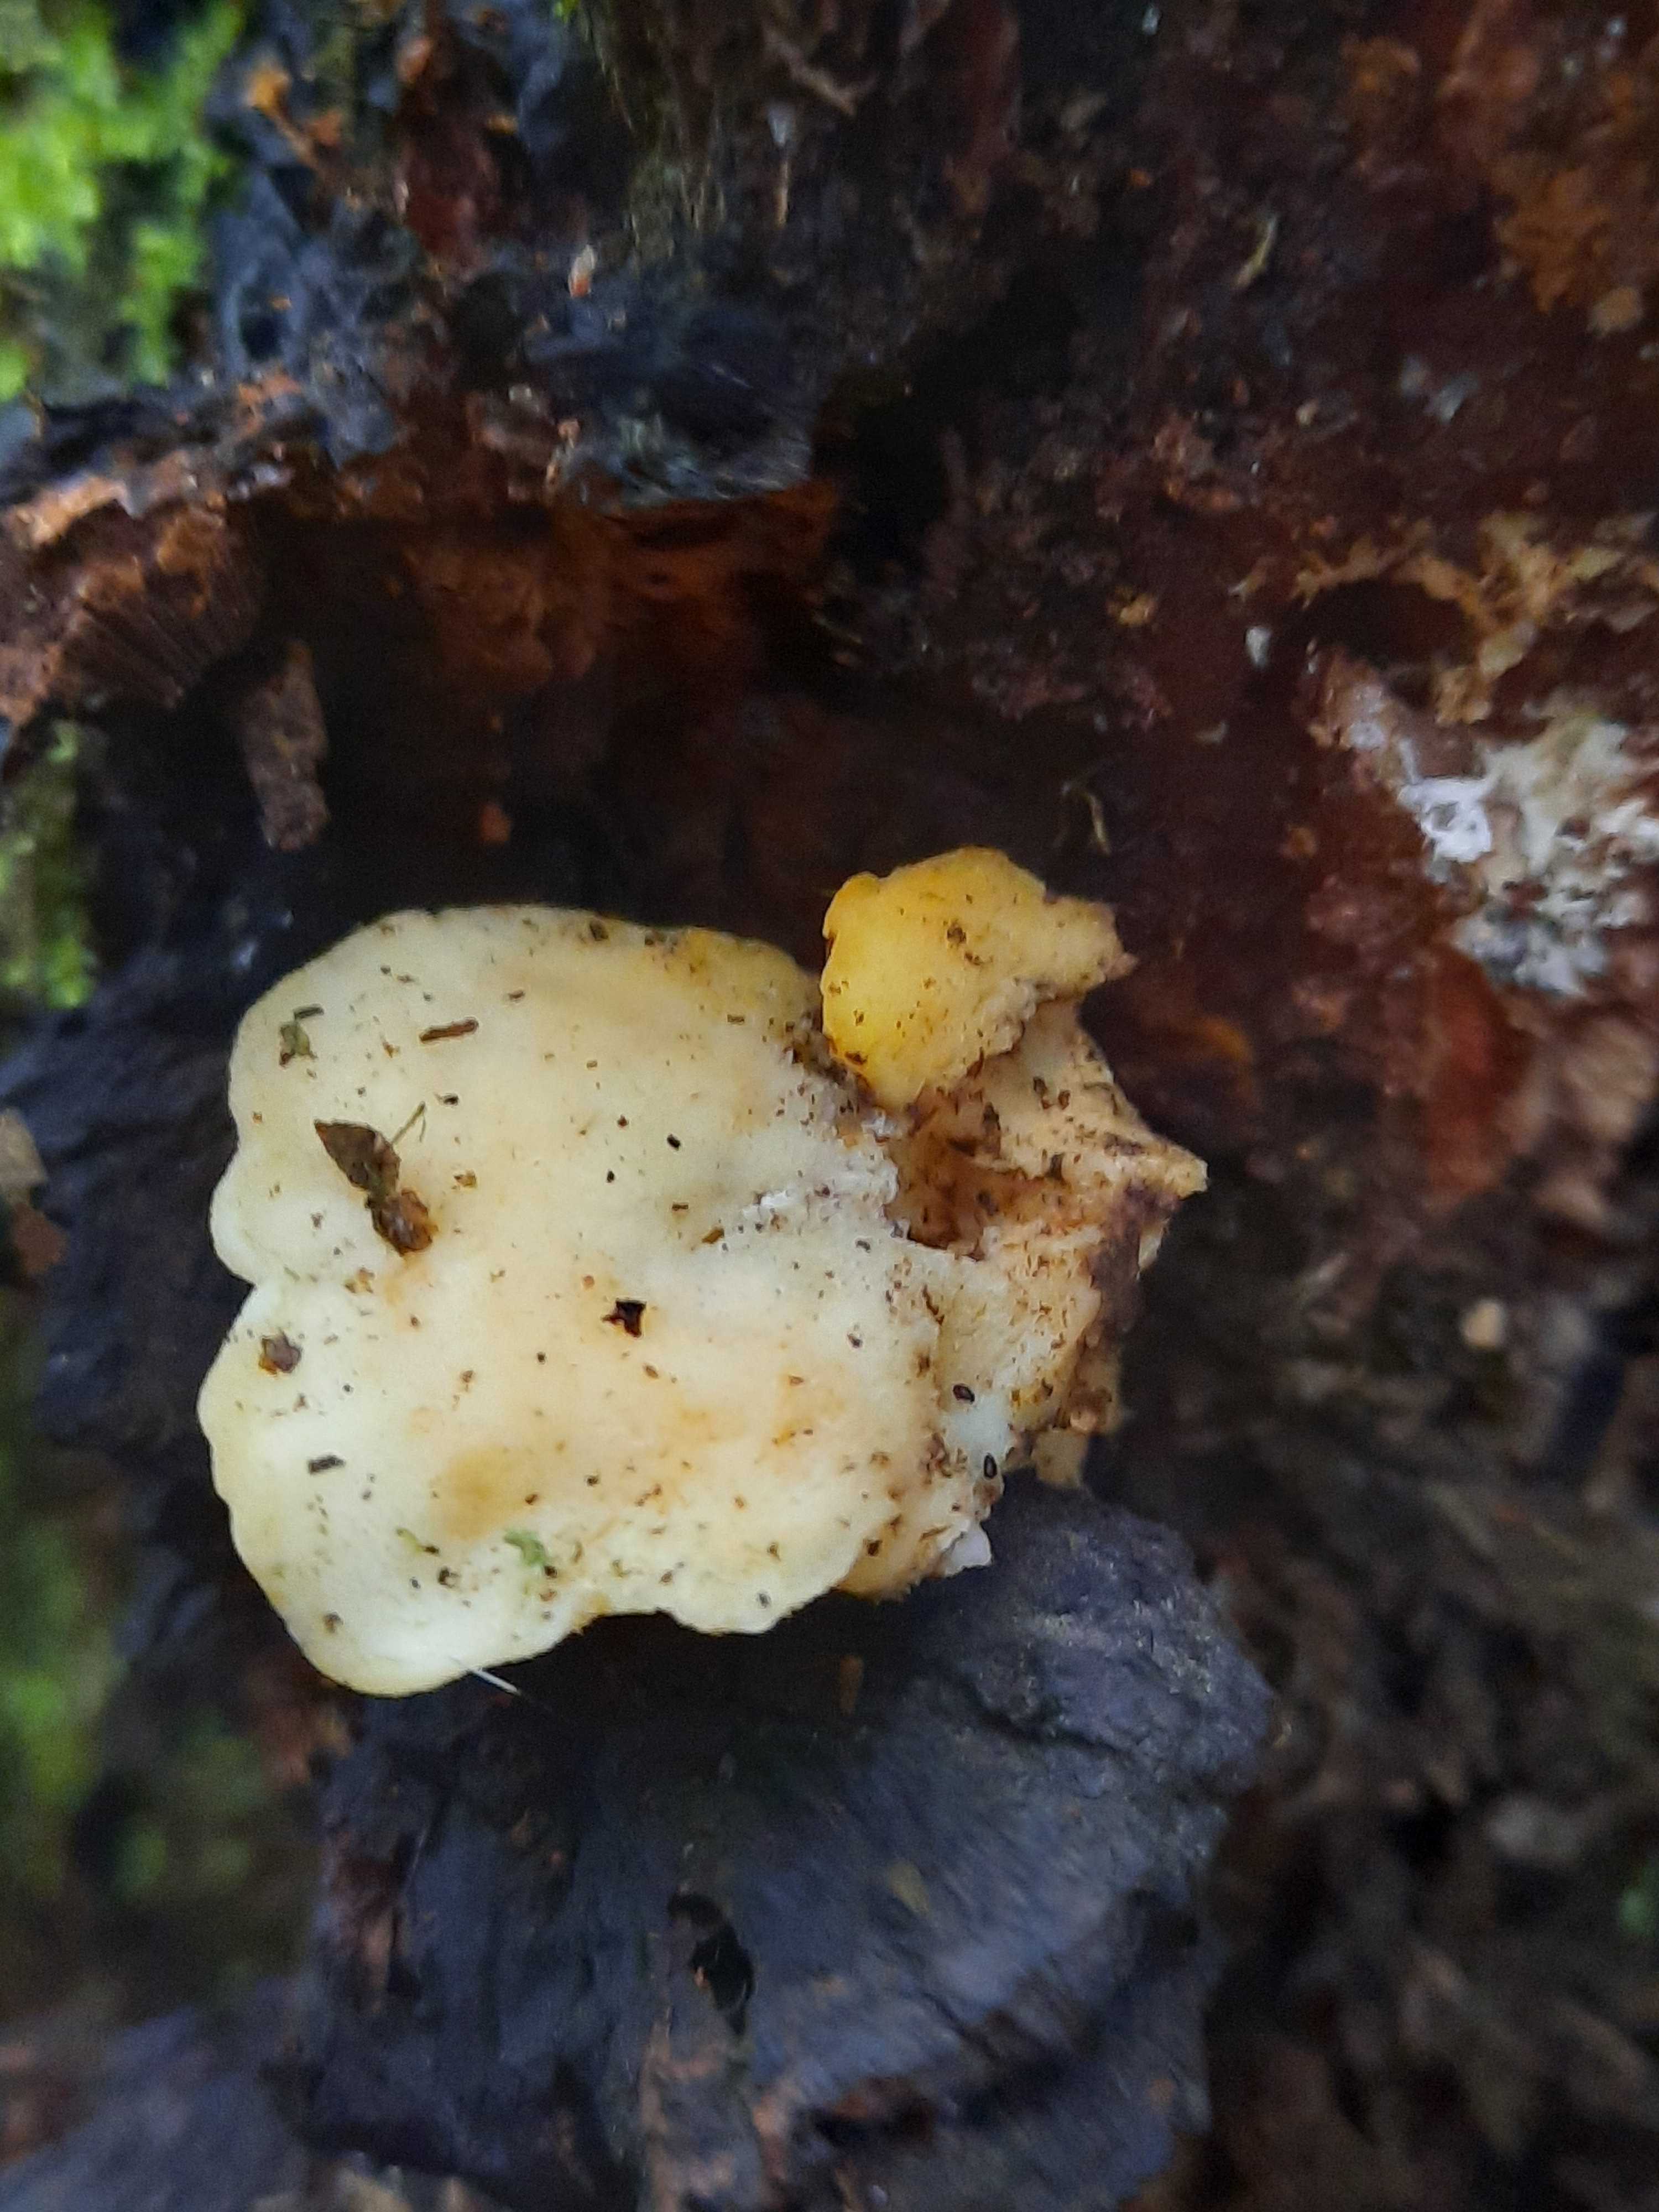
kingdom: Fungi
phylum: Basidiomycota
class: Agaricomycetes
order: Polyporales
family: Steccherinaceae
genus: Antrodiella
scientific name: Antrodiella serpula
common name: gulrandet elastikporesvamp
